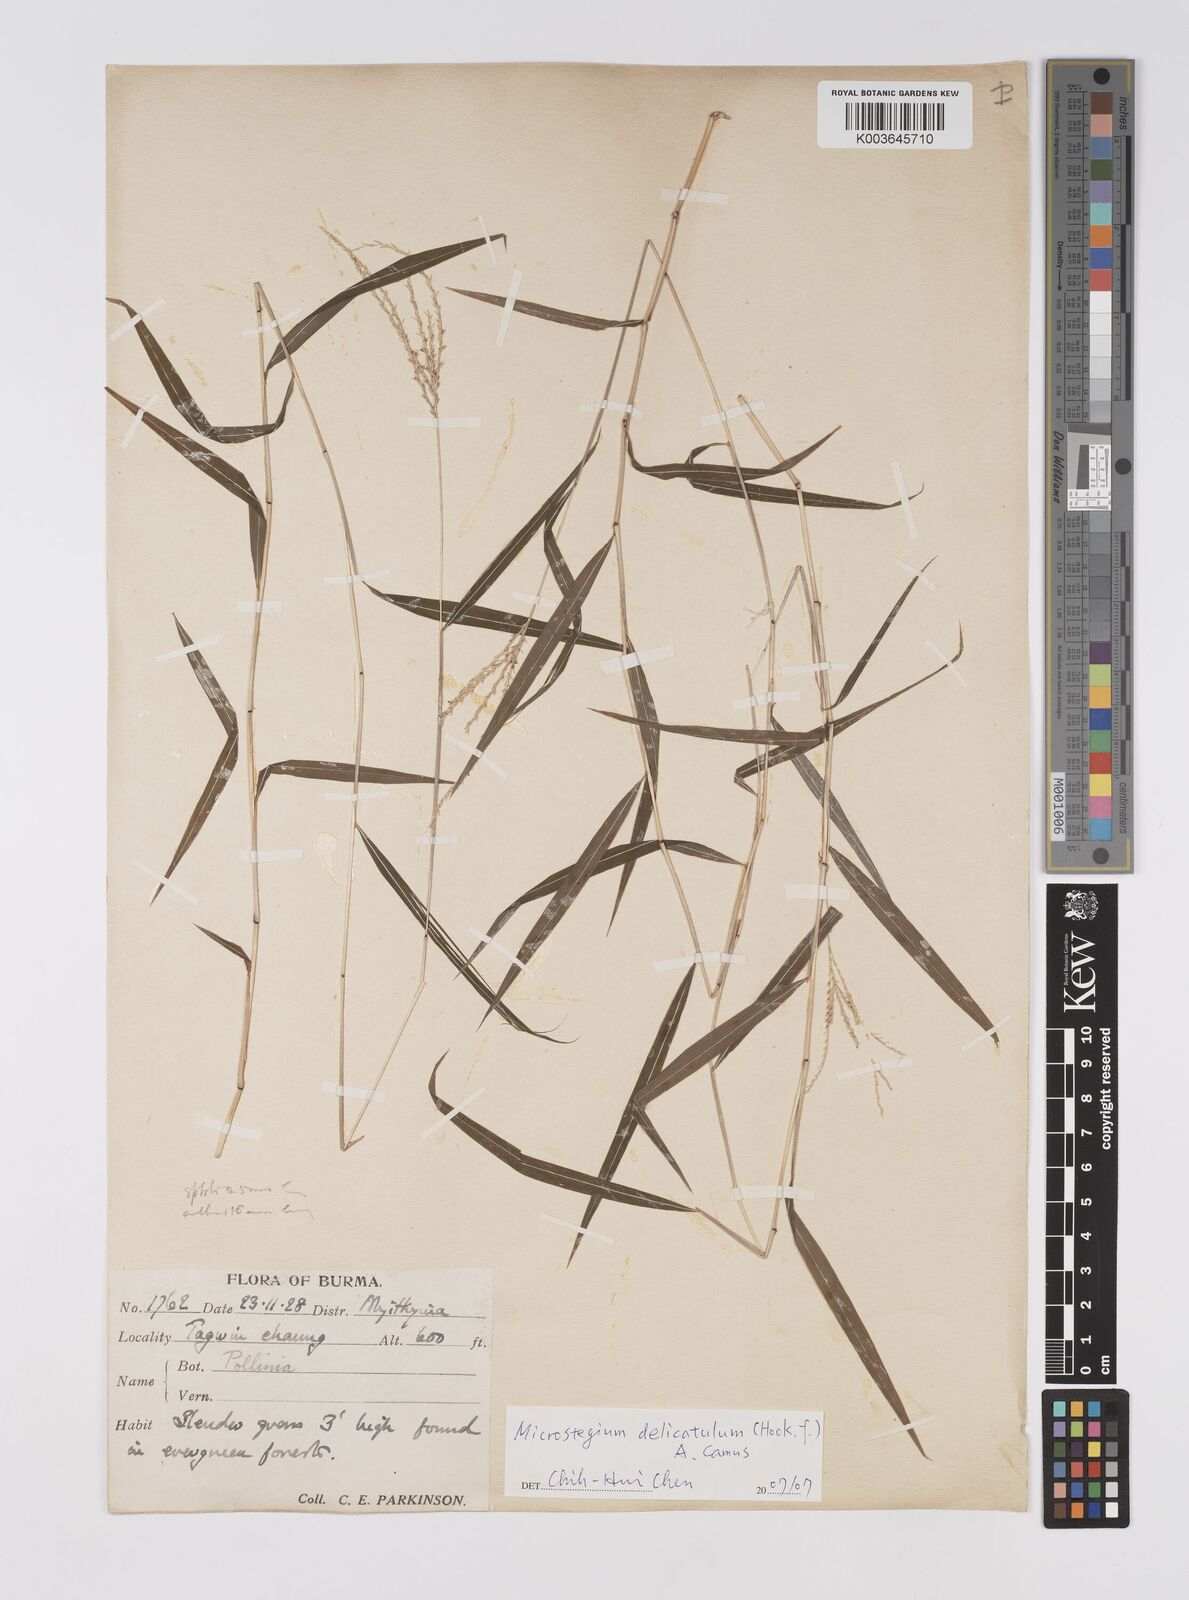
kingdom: Plantae
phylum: Tracheophyta
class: Liliopsida
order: Poales
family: Poaceae
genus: Microstegium
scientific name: Microstegium delicatulum
